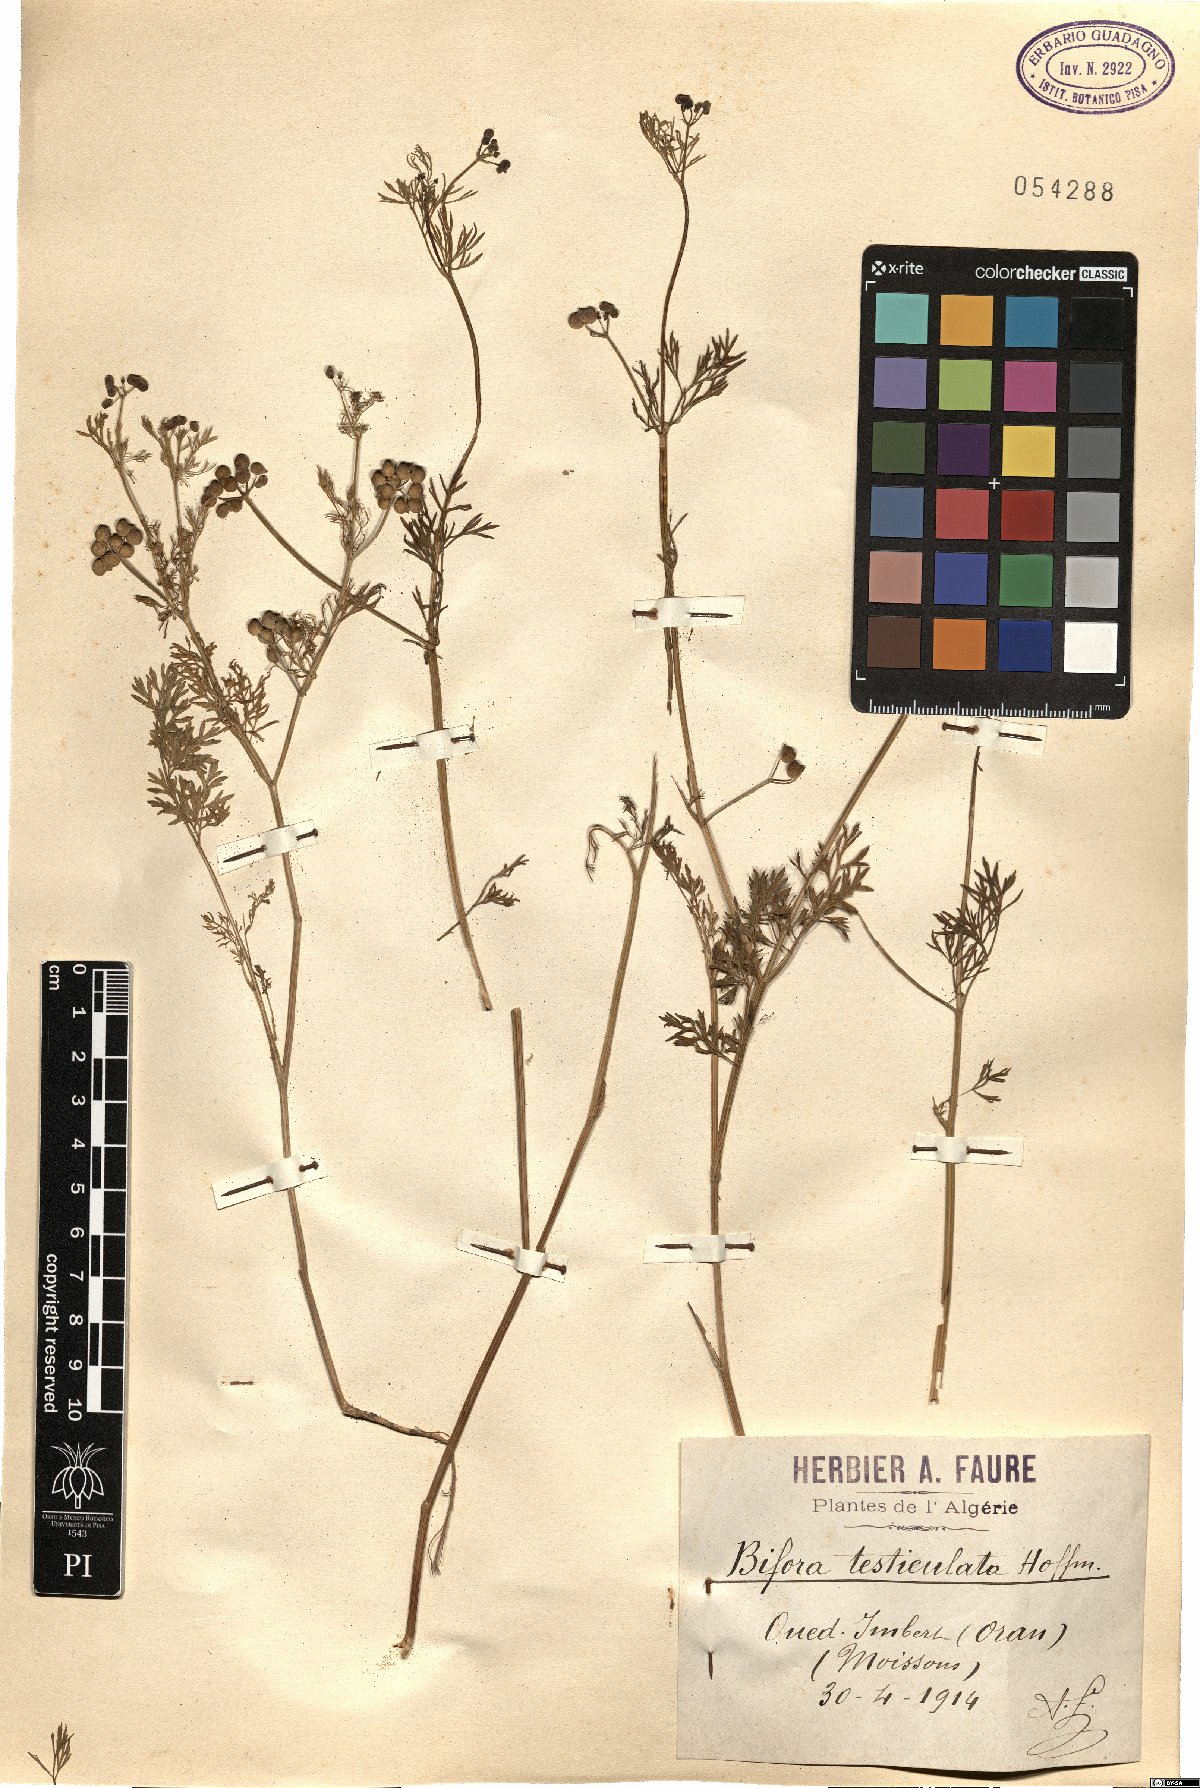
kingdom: Plantae
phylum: Tracheophyta
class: Magnoliopsida
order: Apiales
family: Apiaceae
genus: Bifora
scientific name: Bifora testiculata
